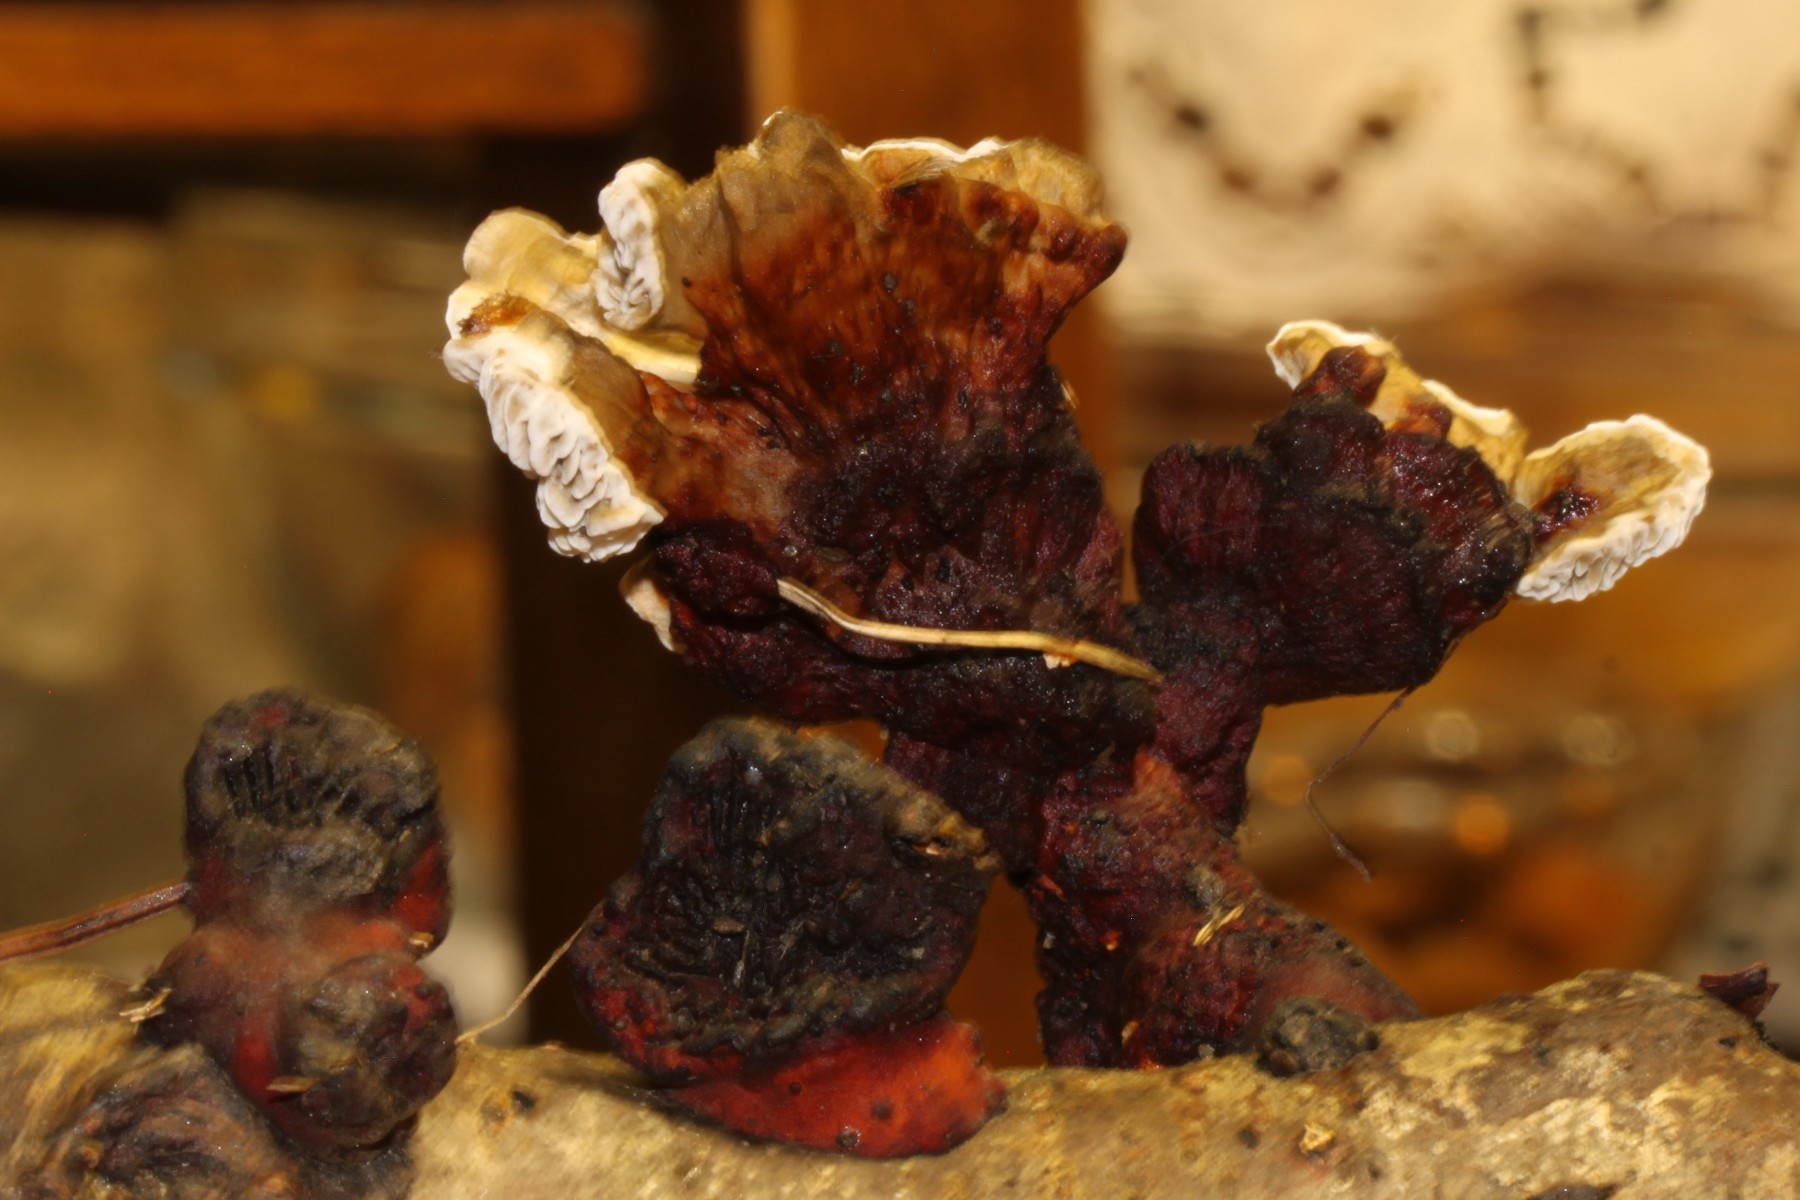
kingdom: Fungi
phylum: Basidiomycota
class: Agaricomycetes
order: Gloeophyllales
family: Gloeophyllaceae
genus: Gloeophyllum
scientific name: Gloeophyllum
